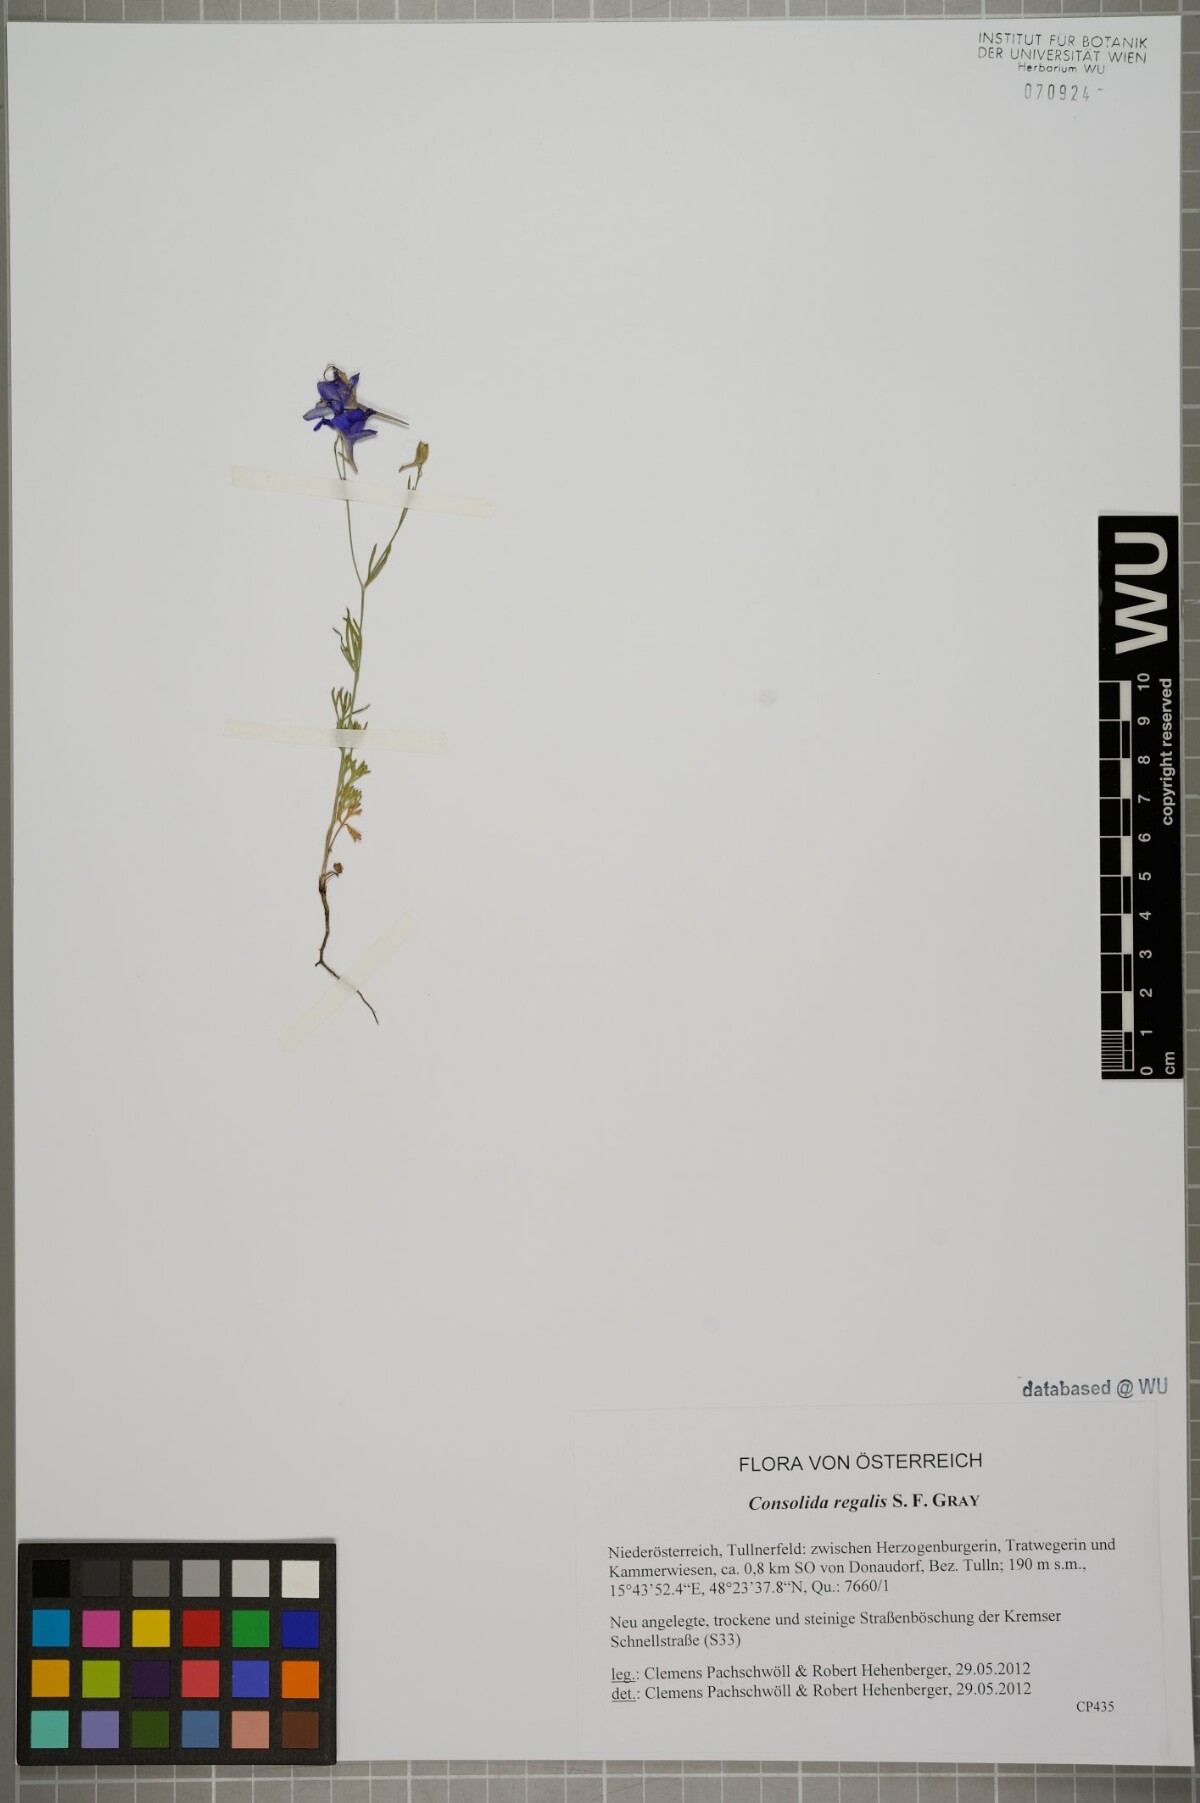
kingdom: Plantae
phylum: Tracheophyta
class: Magnoliopsida
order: Ranunculales
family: Ranunculaceae
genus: Delphinium
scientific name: Delphinium consolida
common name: Branching larkspur
